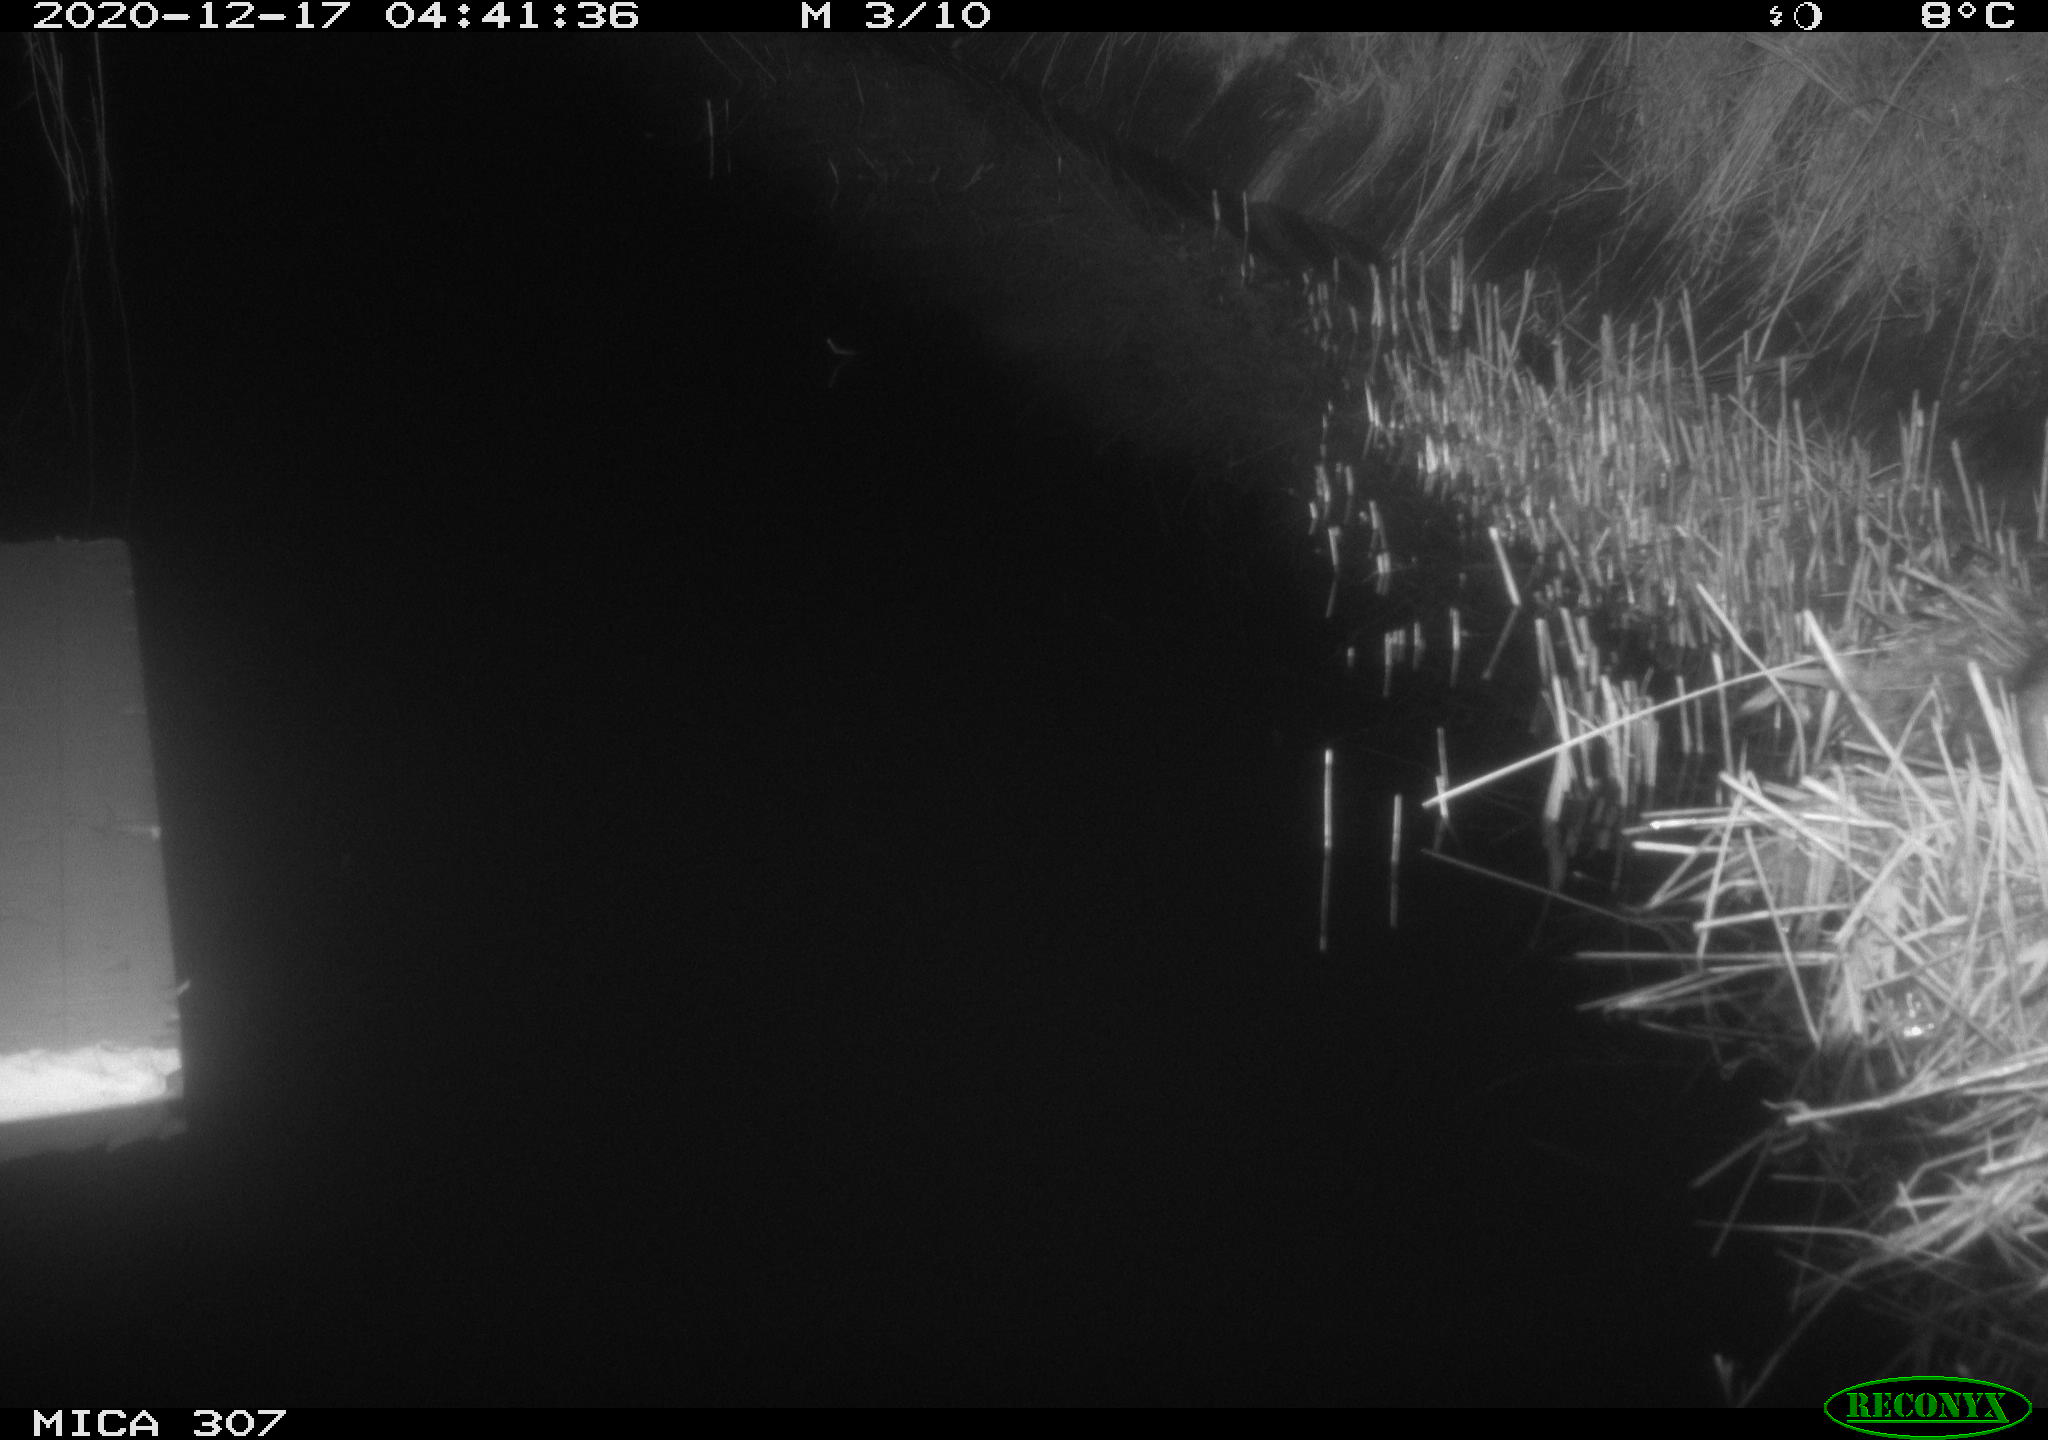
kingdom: Animalia
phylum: Chordata
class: Mammalia
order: Rodentia
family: Muridae
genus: Rattus
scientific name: Rattus norvegicus
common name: Brown rat
